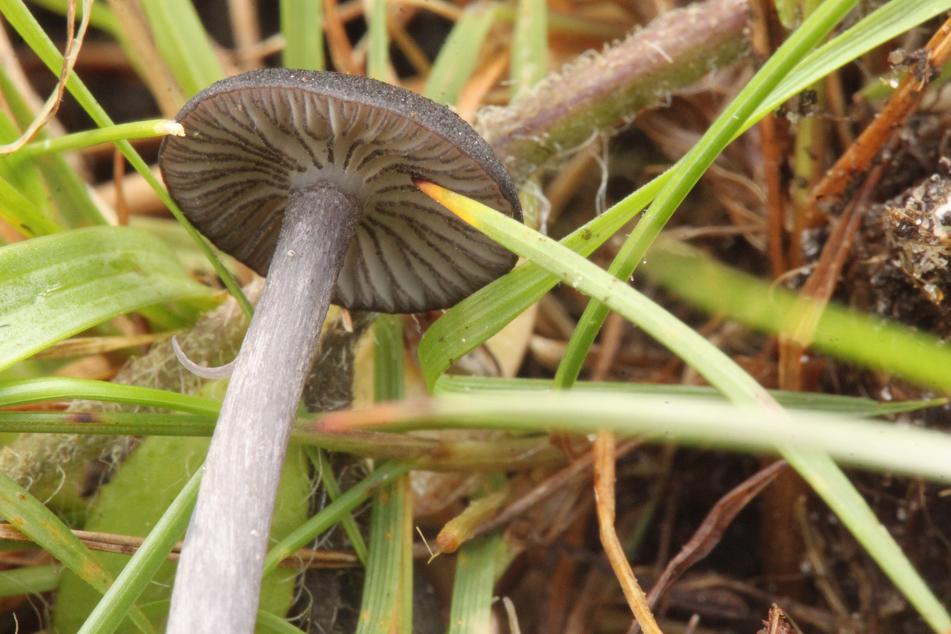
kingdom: Fungi
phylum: Basidiomycota
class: Agaricomycetes
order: Agaricales
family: Entolomataceae
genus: Entoloma
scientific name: Entoloma
